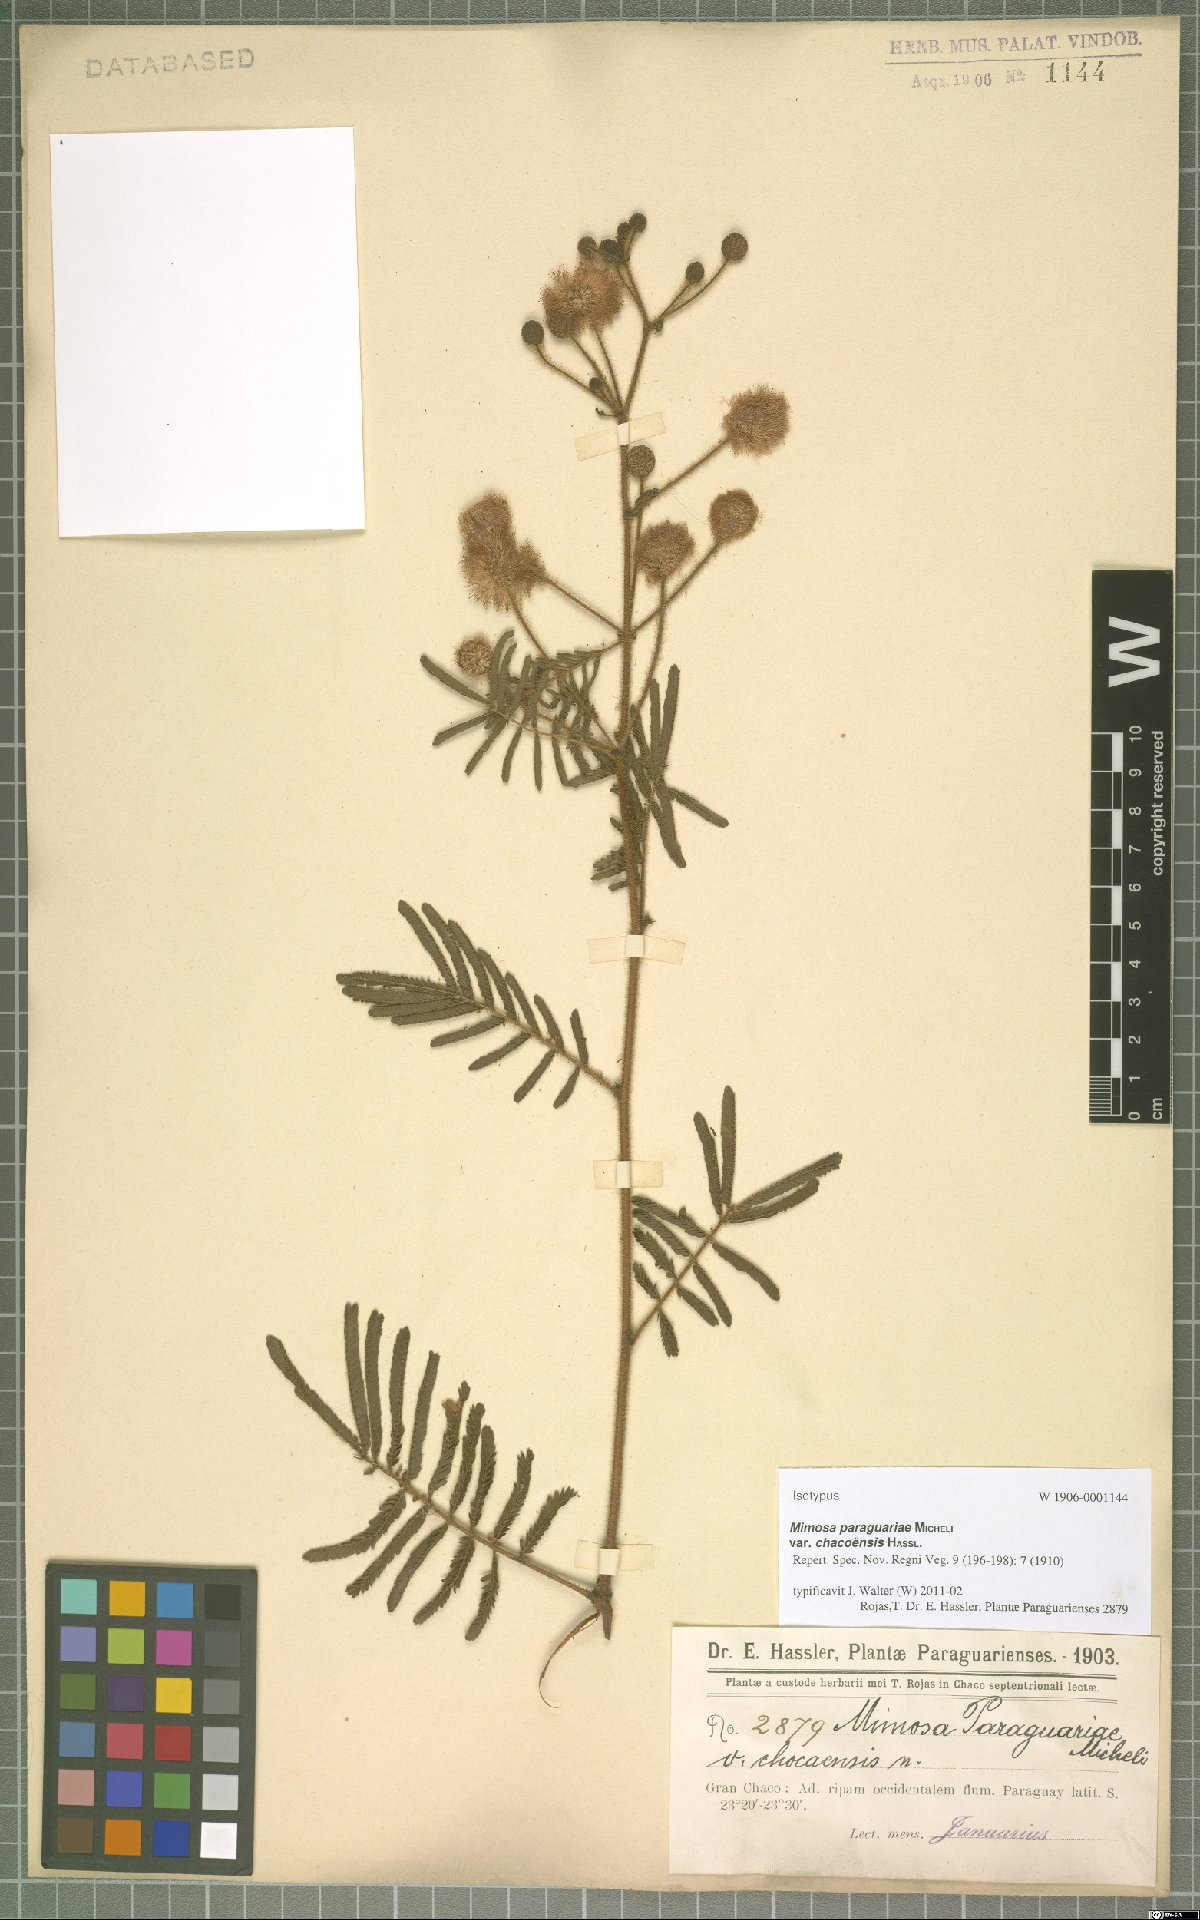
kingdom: Plantae
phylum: Tracheophyta
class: Magnoliopsida
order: Fabales
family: Fabaceae
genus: Mimosa
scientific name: Mimosa paraguariae
